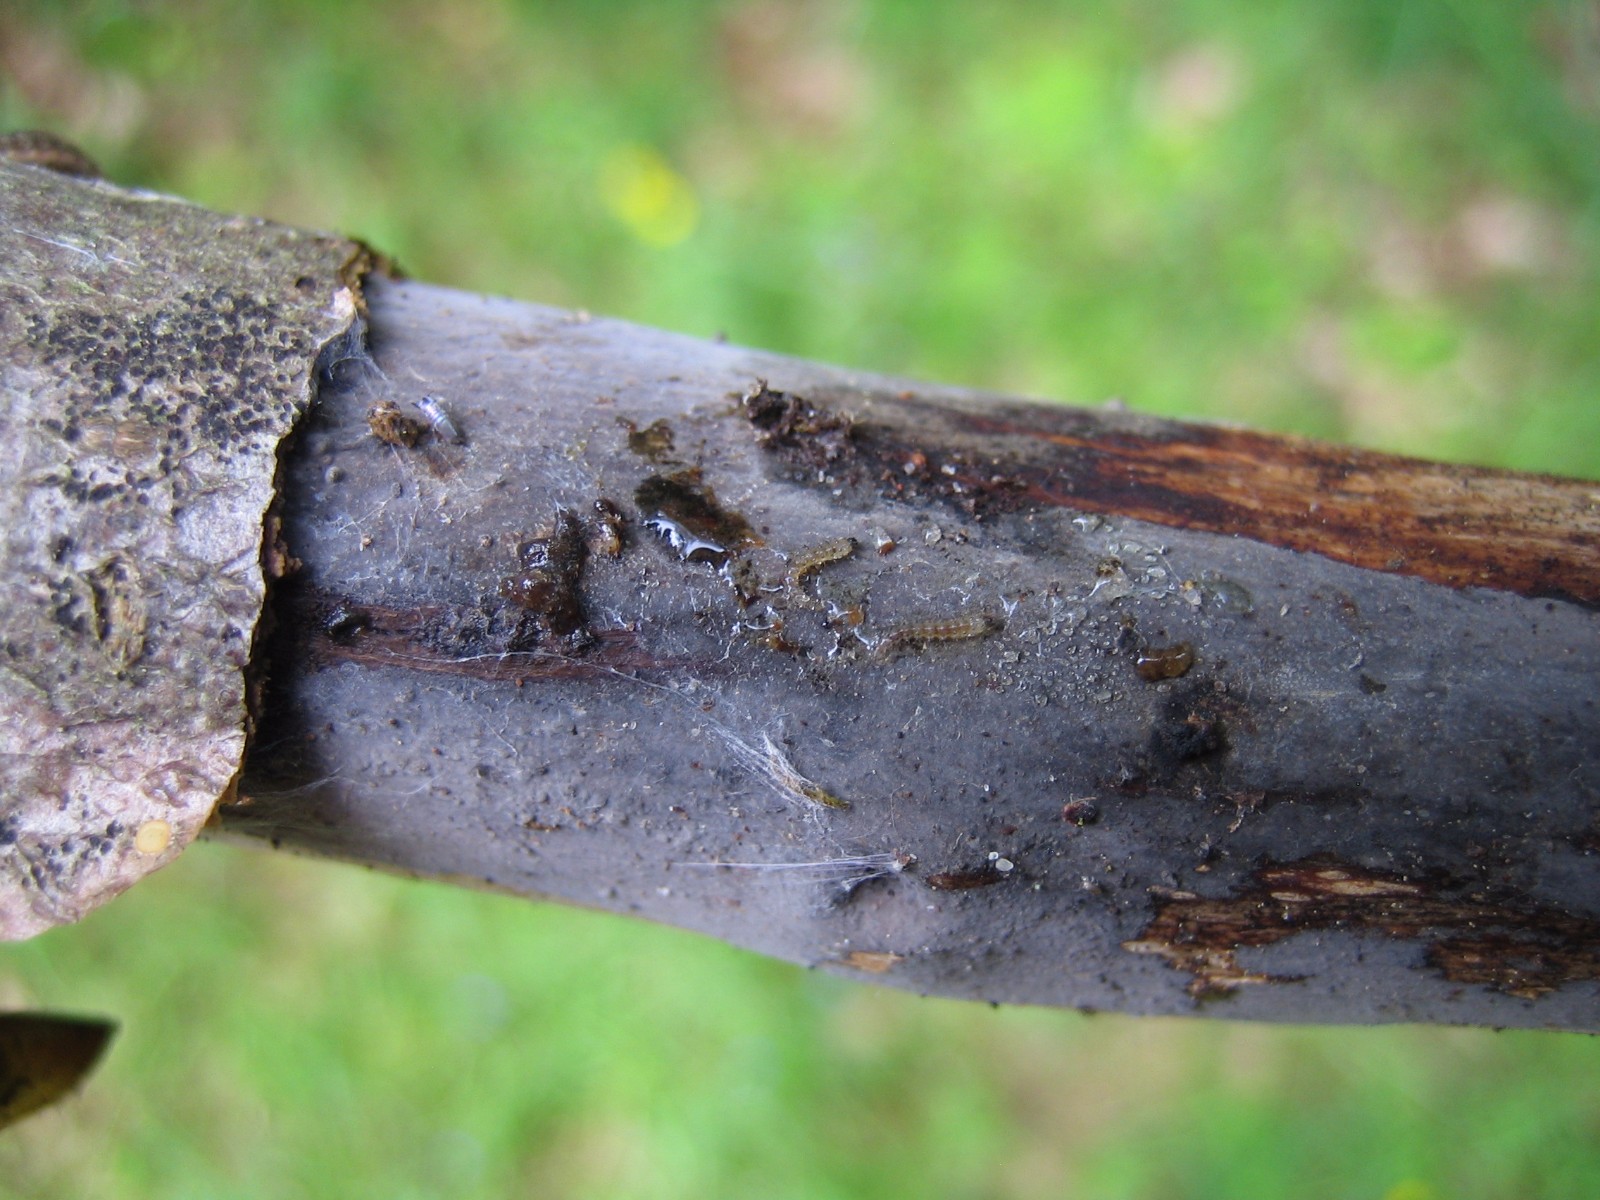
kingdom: Fungi
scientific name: Fungi
